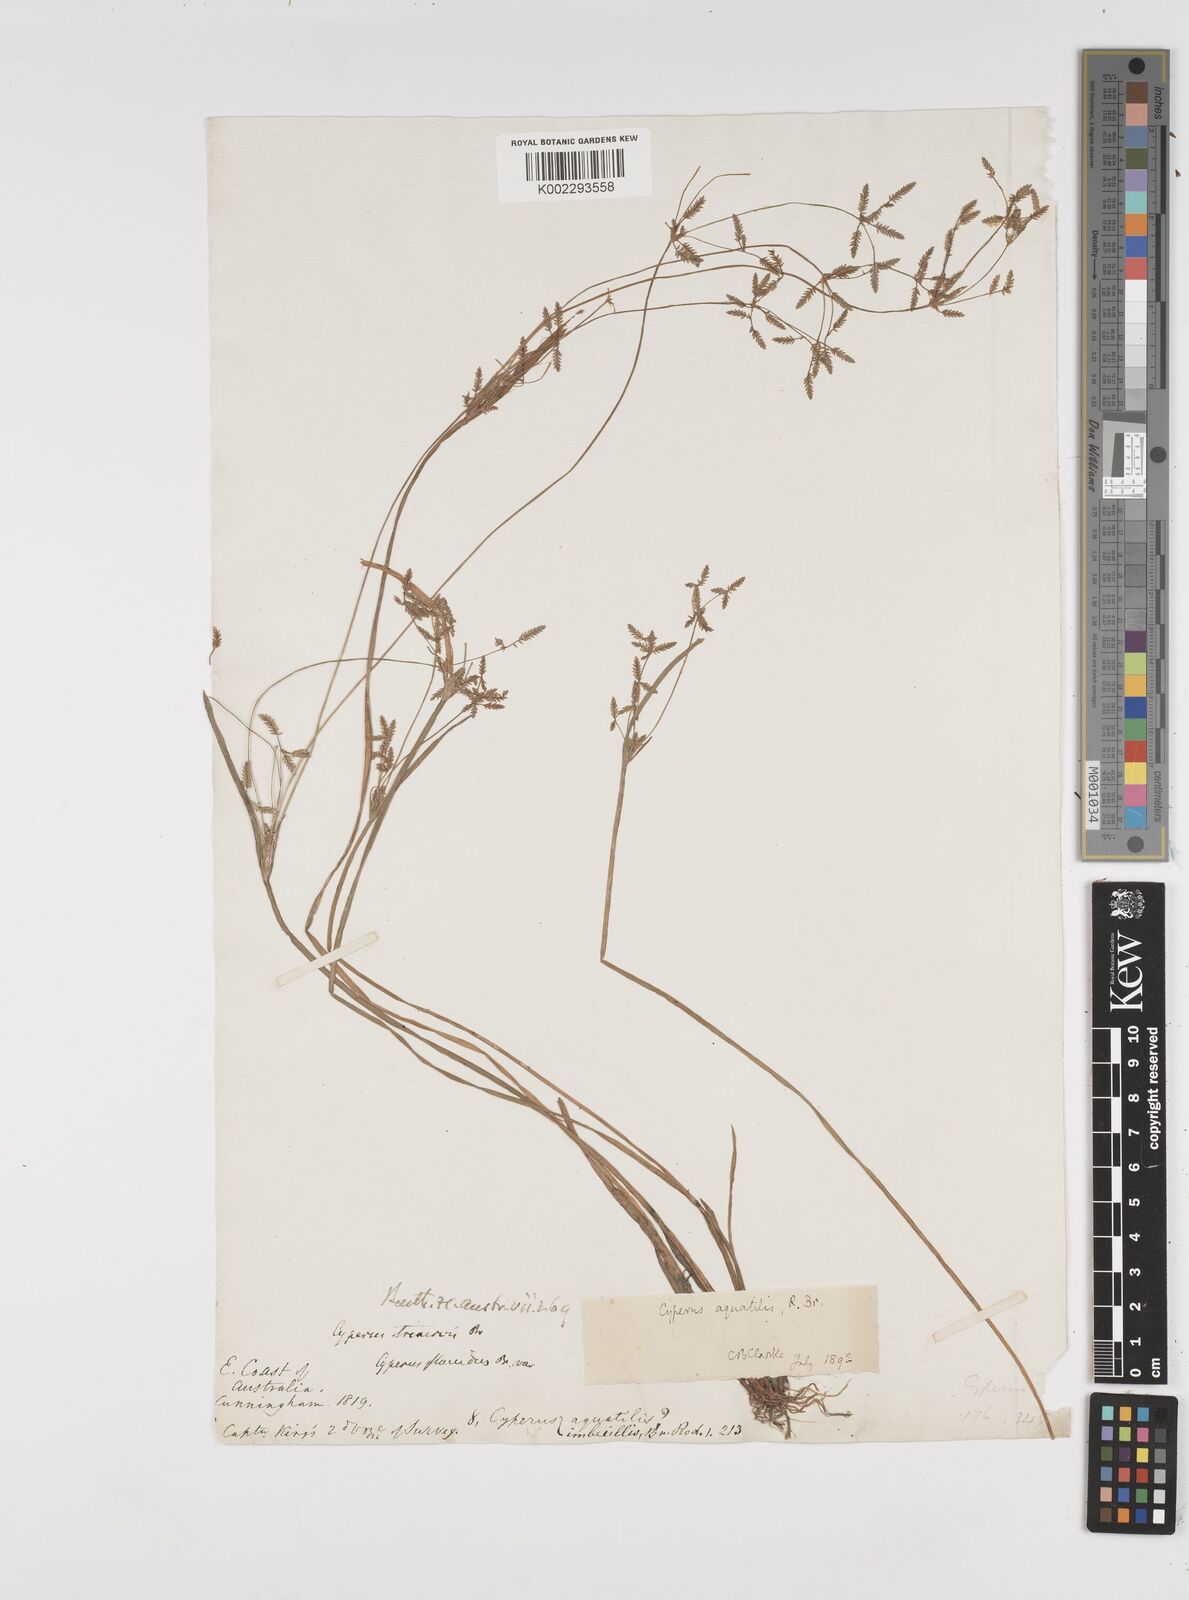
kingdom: Plantae
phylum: Tracheophyta
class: Liliopsida
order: Poales
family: Cyperaceae
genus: Cyperus
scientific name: Cyperus aquatilis
